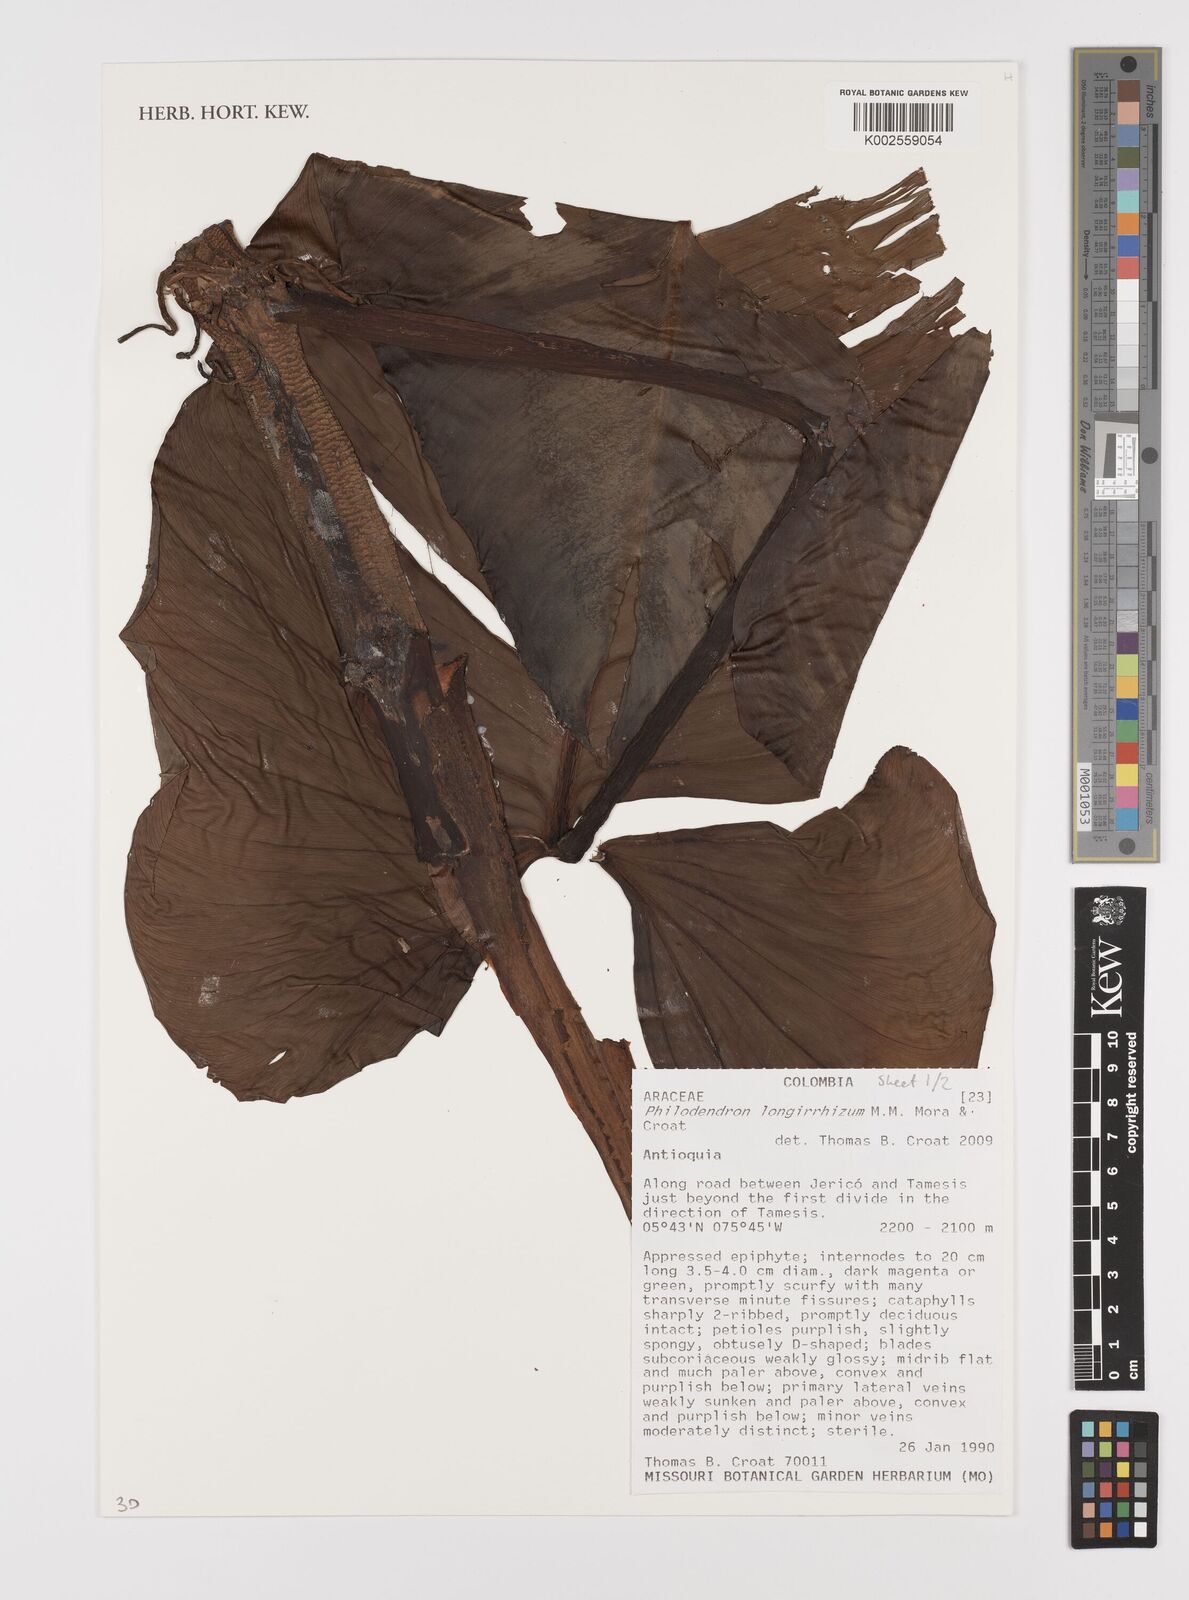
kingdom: Plantae
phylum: Tracheophyta
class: Liliopsida
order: Alismatales
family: Araceae
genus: Philodendron
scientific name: Philodendron longirrhizum
